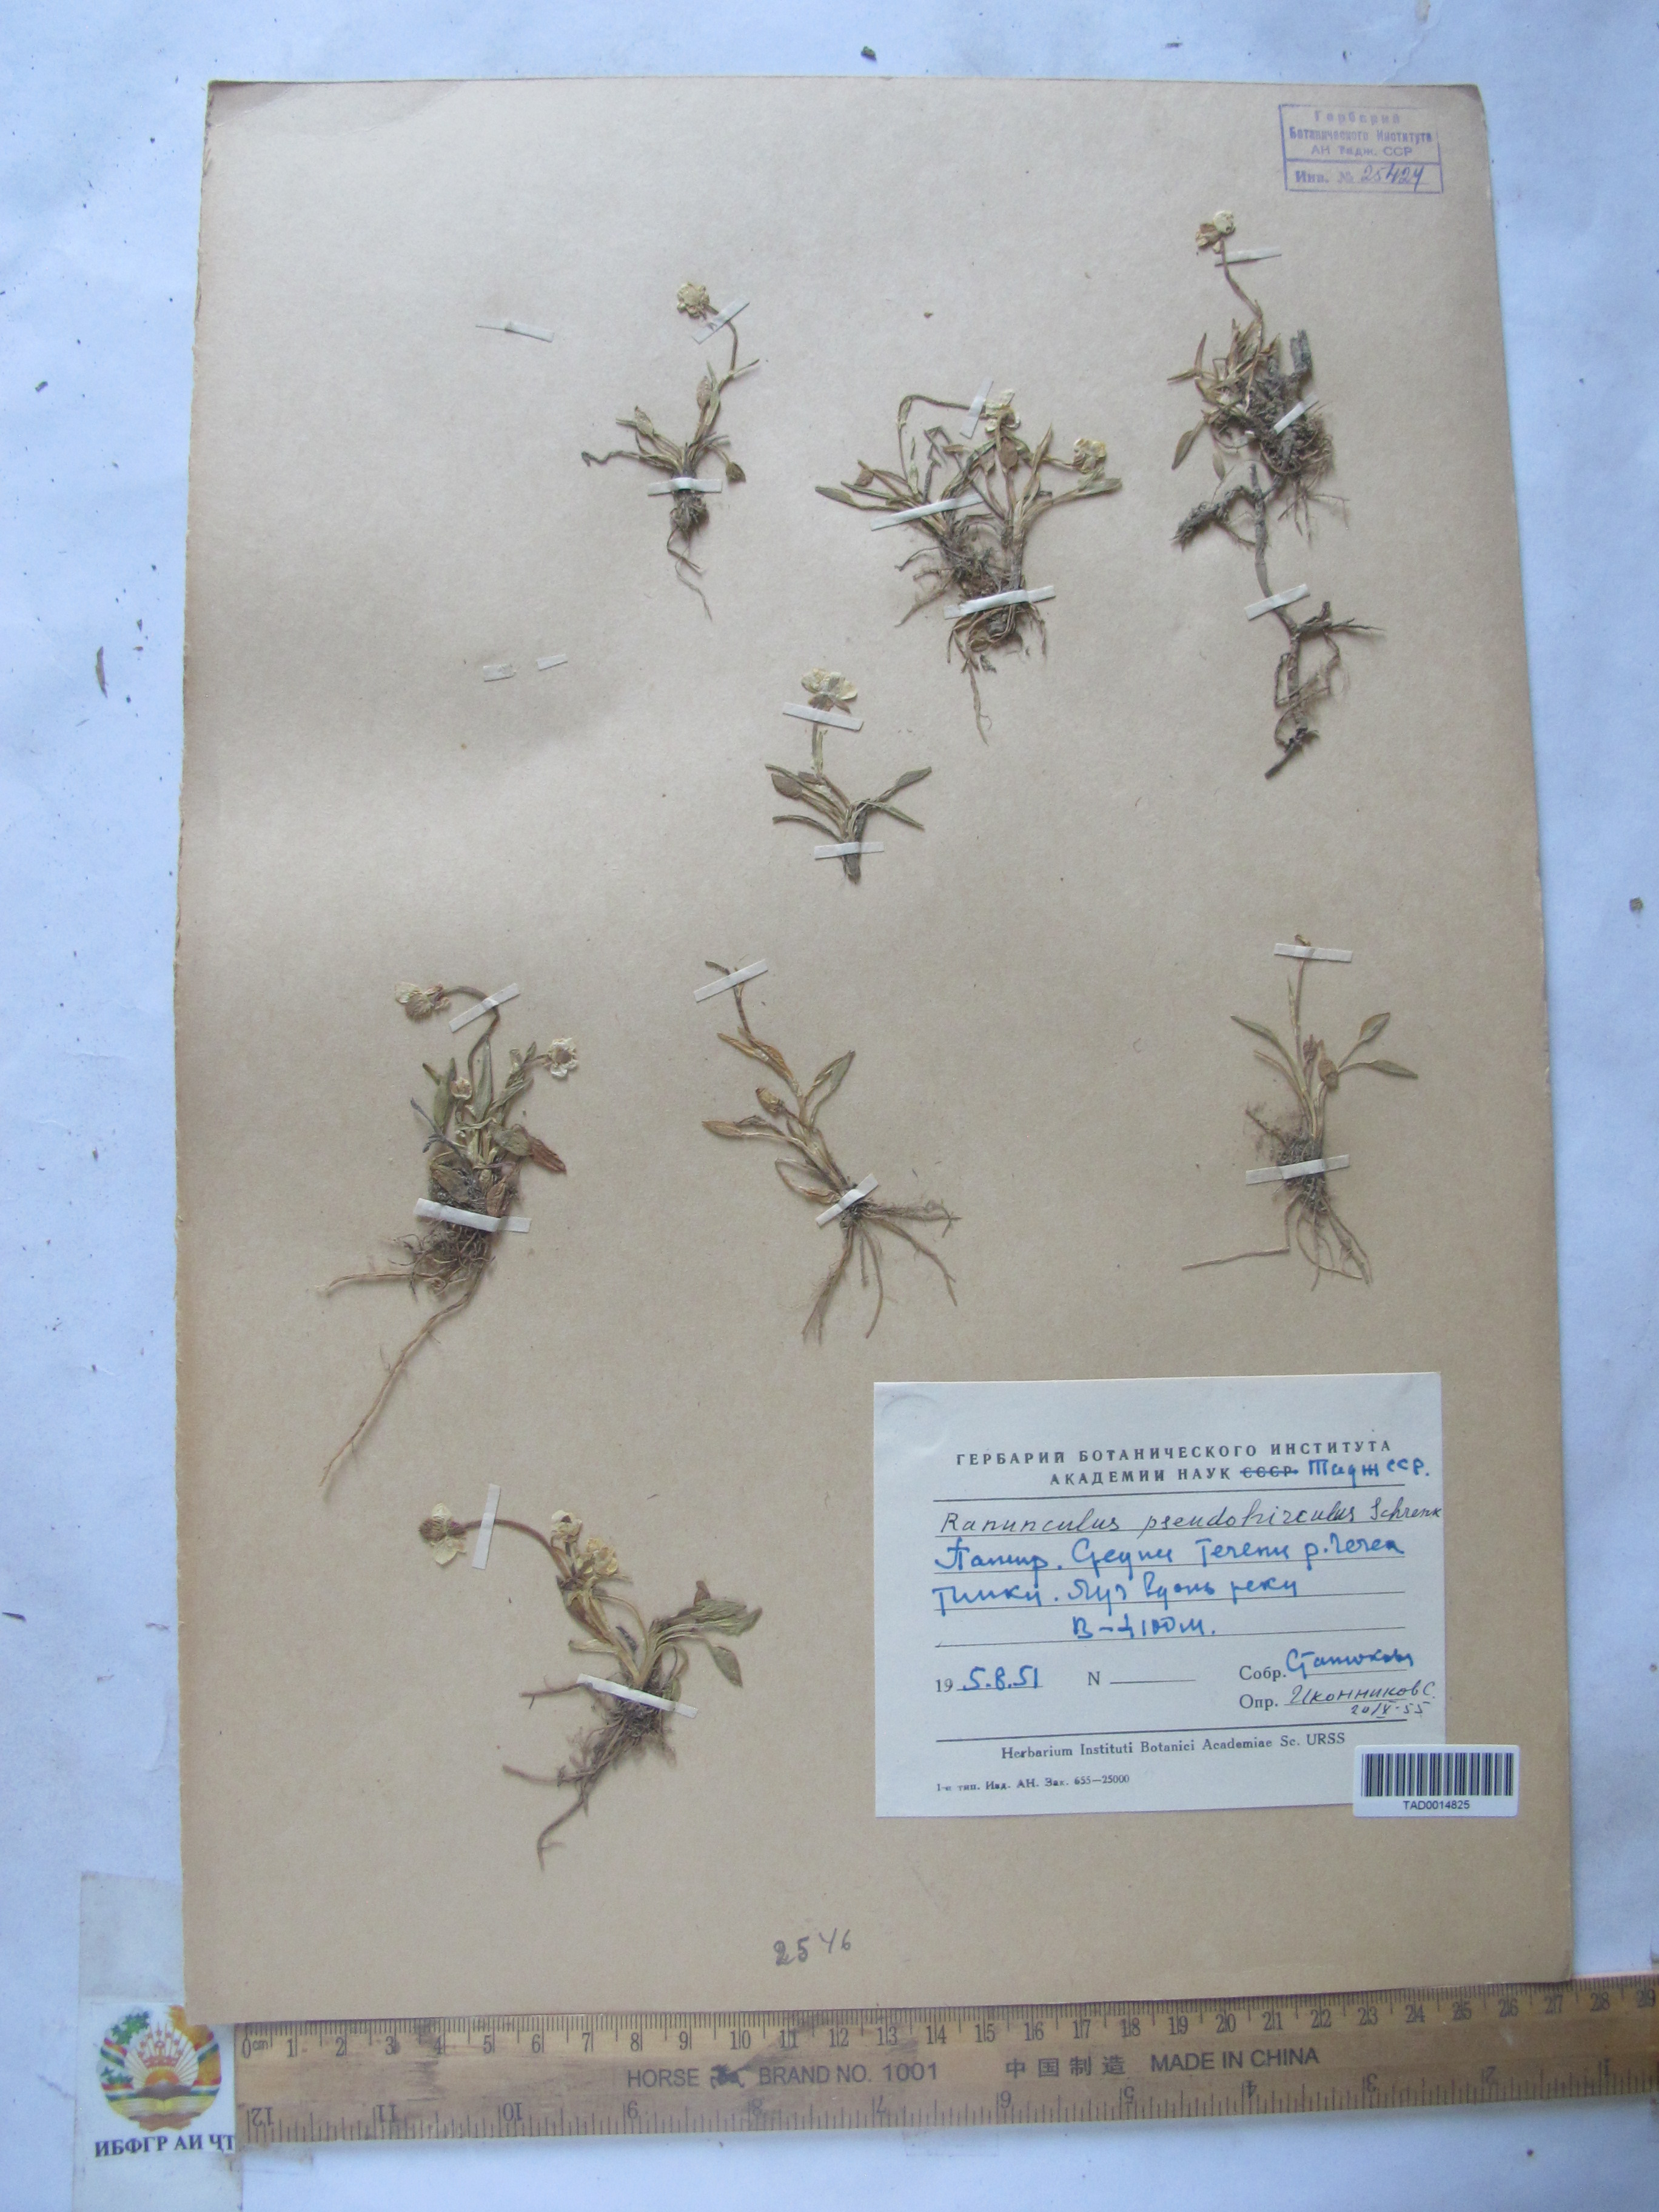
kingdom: Plantae
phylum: Tracheophyta
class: Magnoliopsida
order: Ranunculales
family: Ranunculaceae
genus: Ranunculus
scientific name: Ranunculus pseudohirculus
